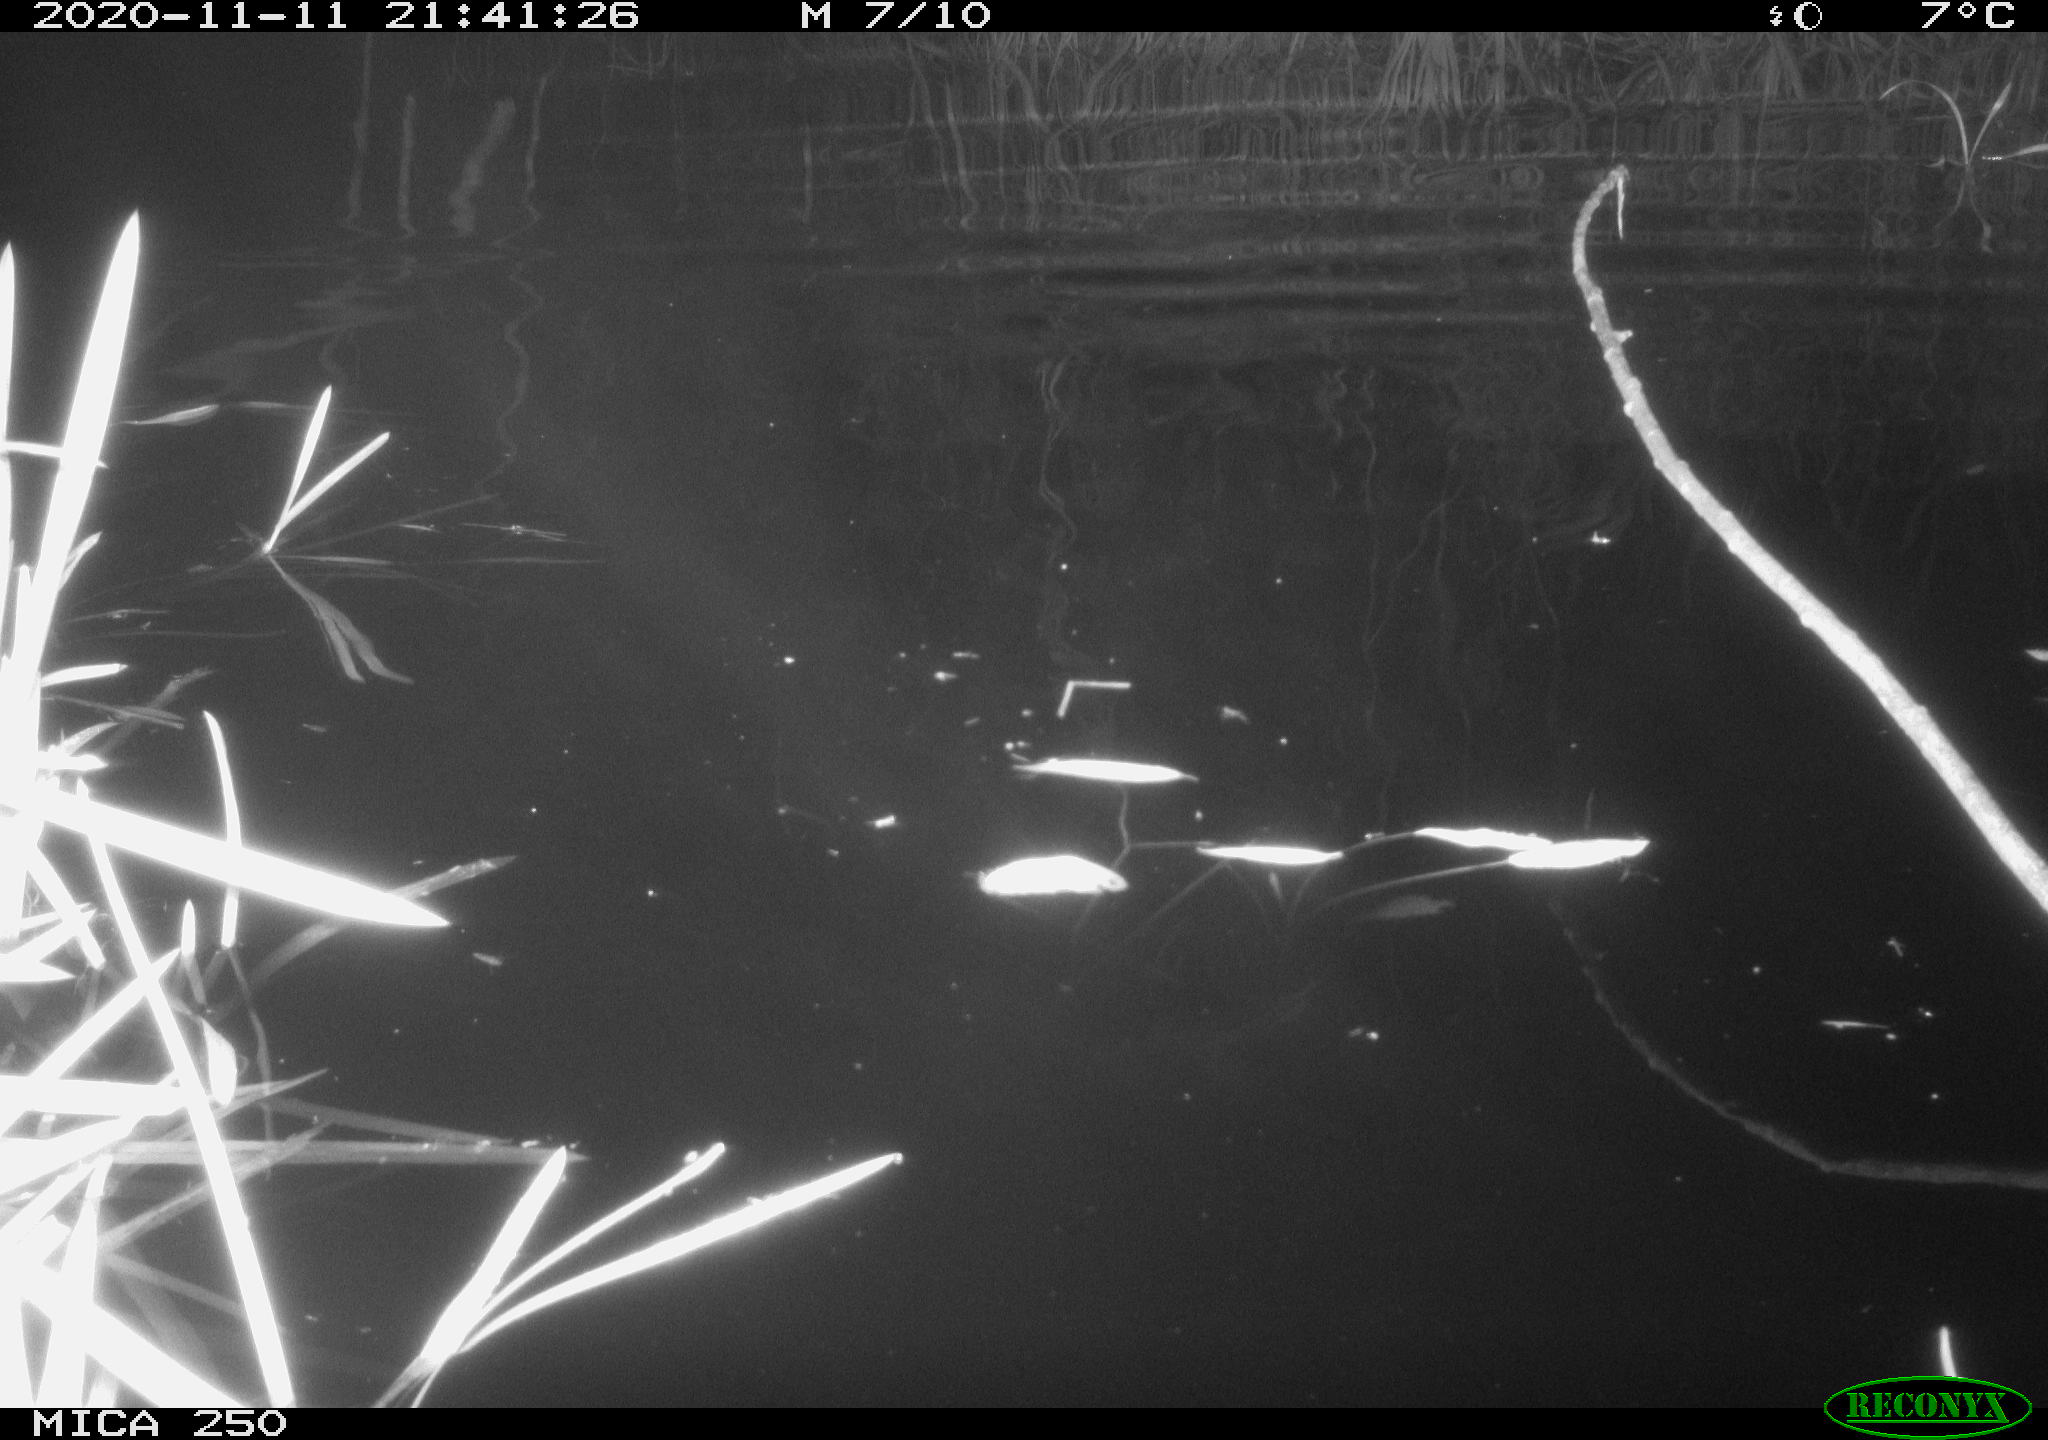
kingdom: Animalia
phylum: Chordata
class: Mammalia
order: Rodentia
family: Myocastoridae
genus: Myocastor
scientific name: Myocastor coypus
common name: Coypu
